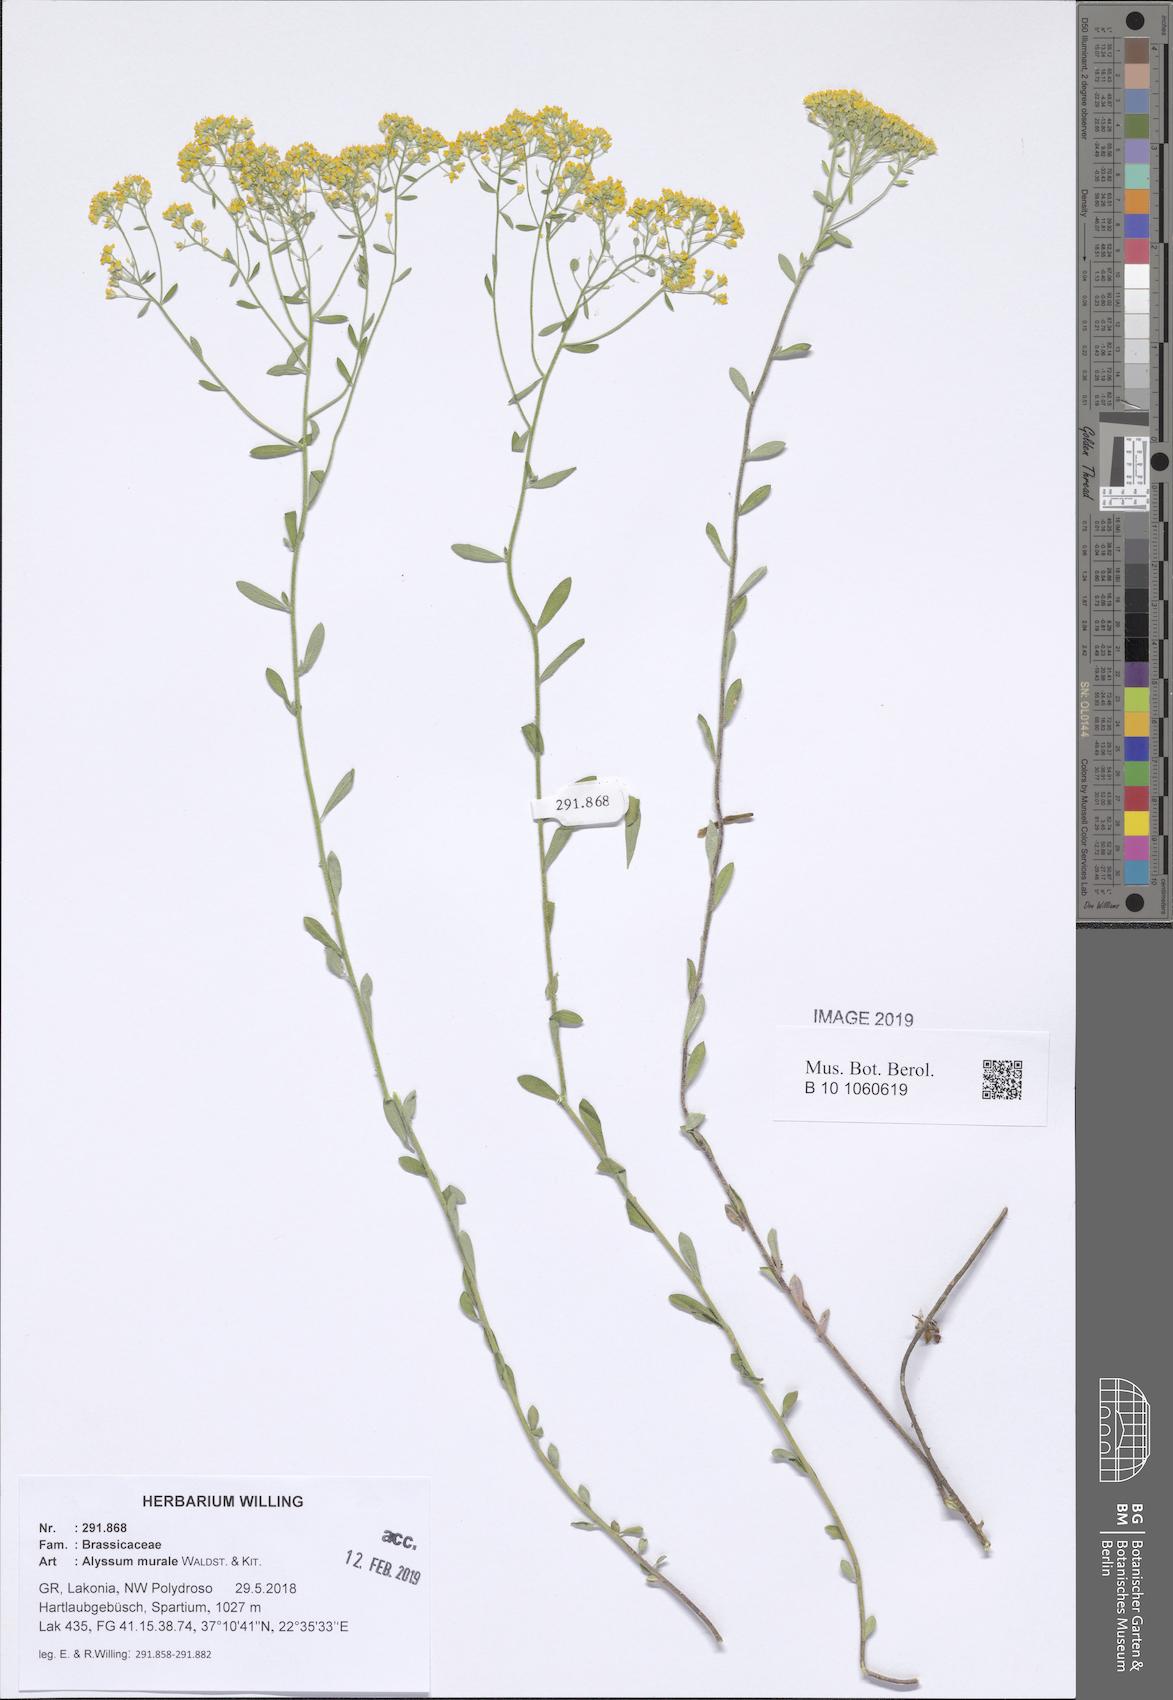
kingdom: Plantae
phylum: Tracheophyta
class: Magnoliopsida
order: Brassicales
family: Brassicaceae
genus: Odontarrhena
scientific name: Odontarrhena muralis
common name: Rock alyssum
